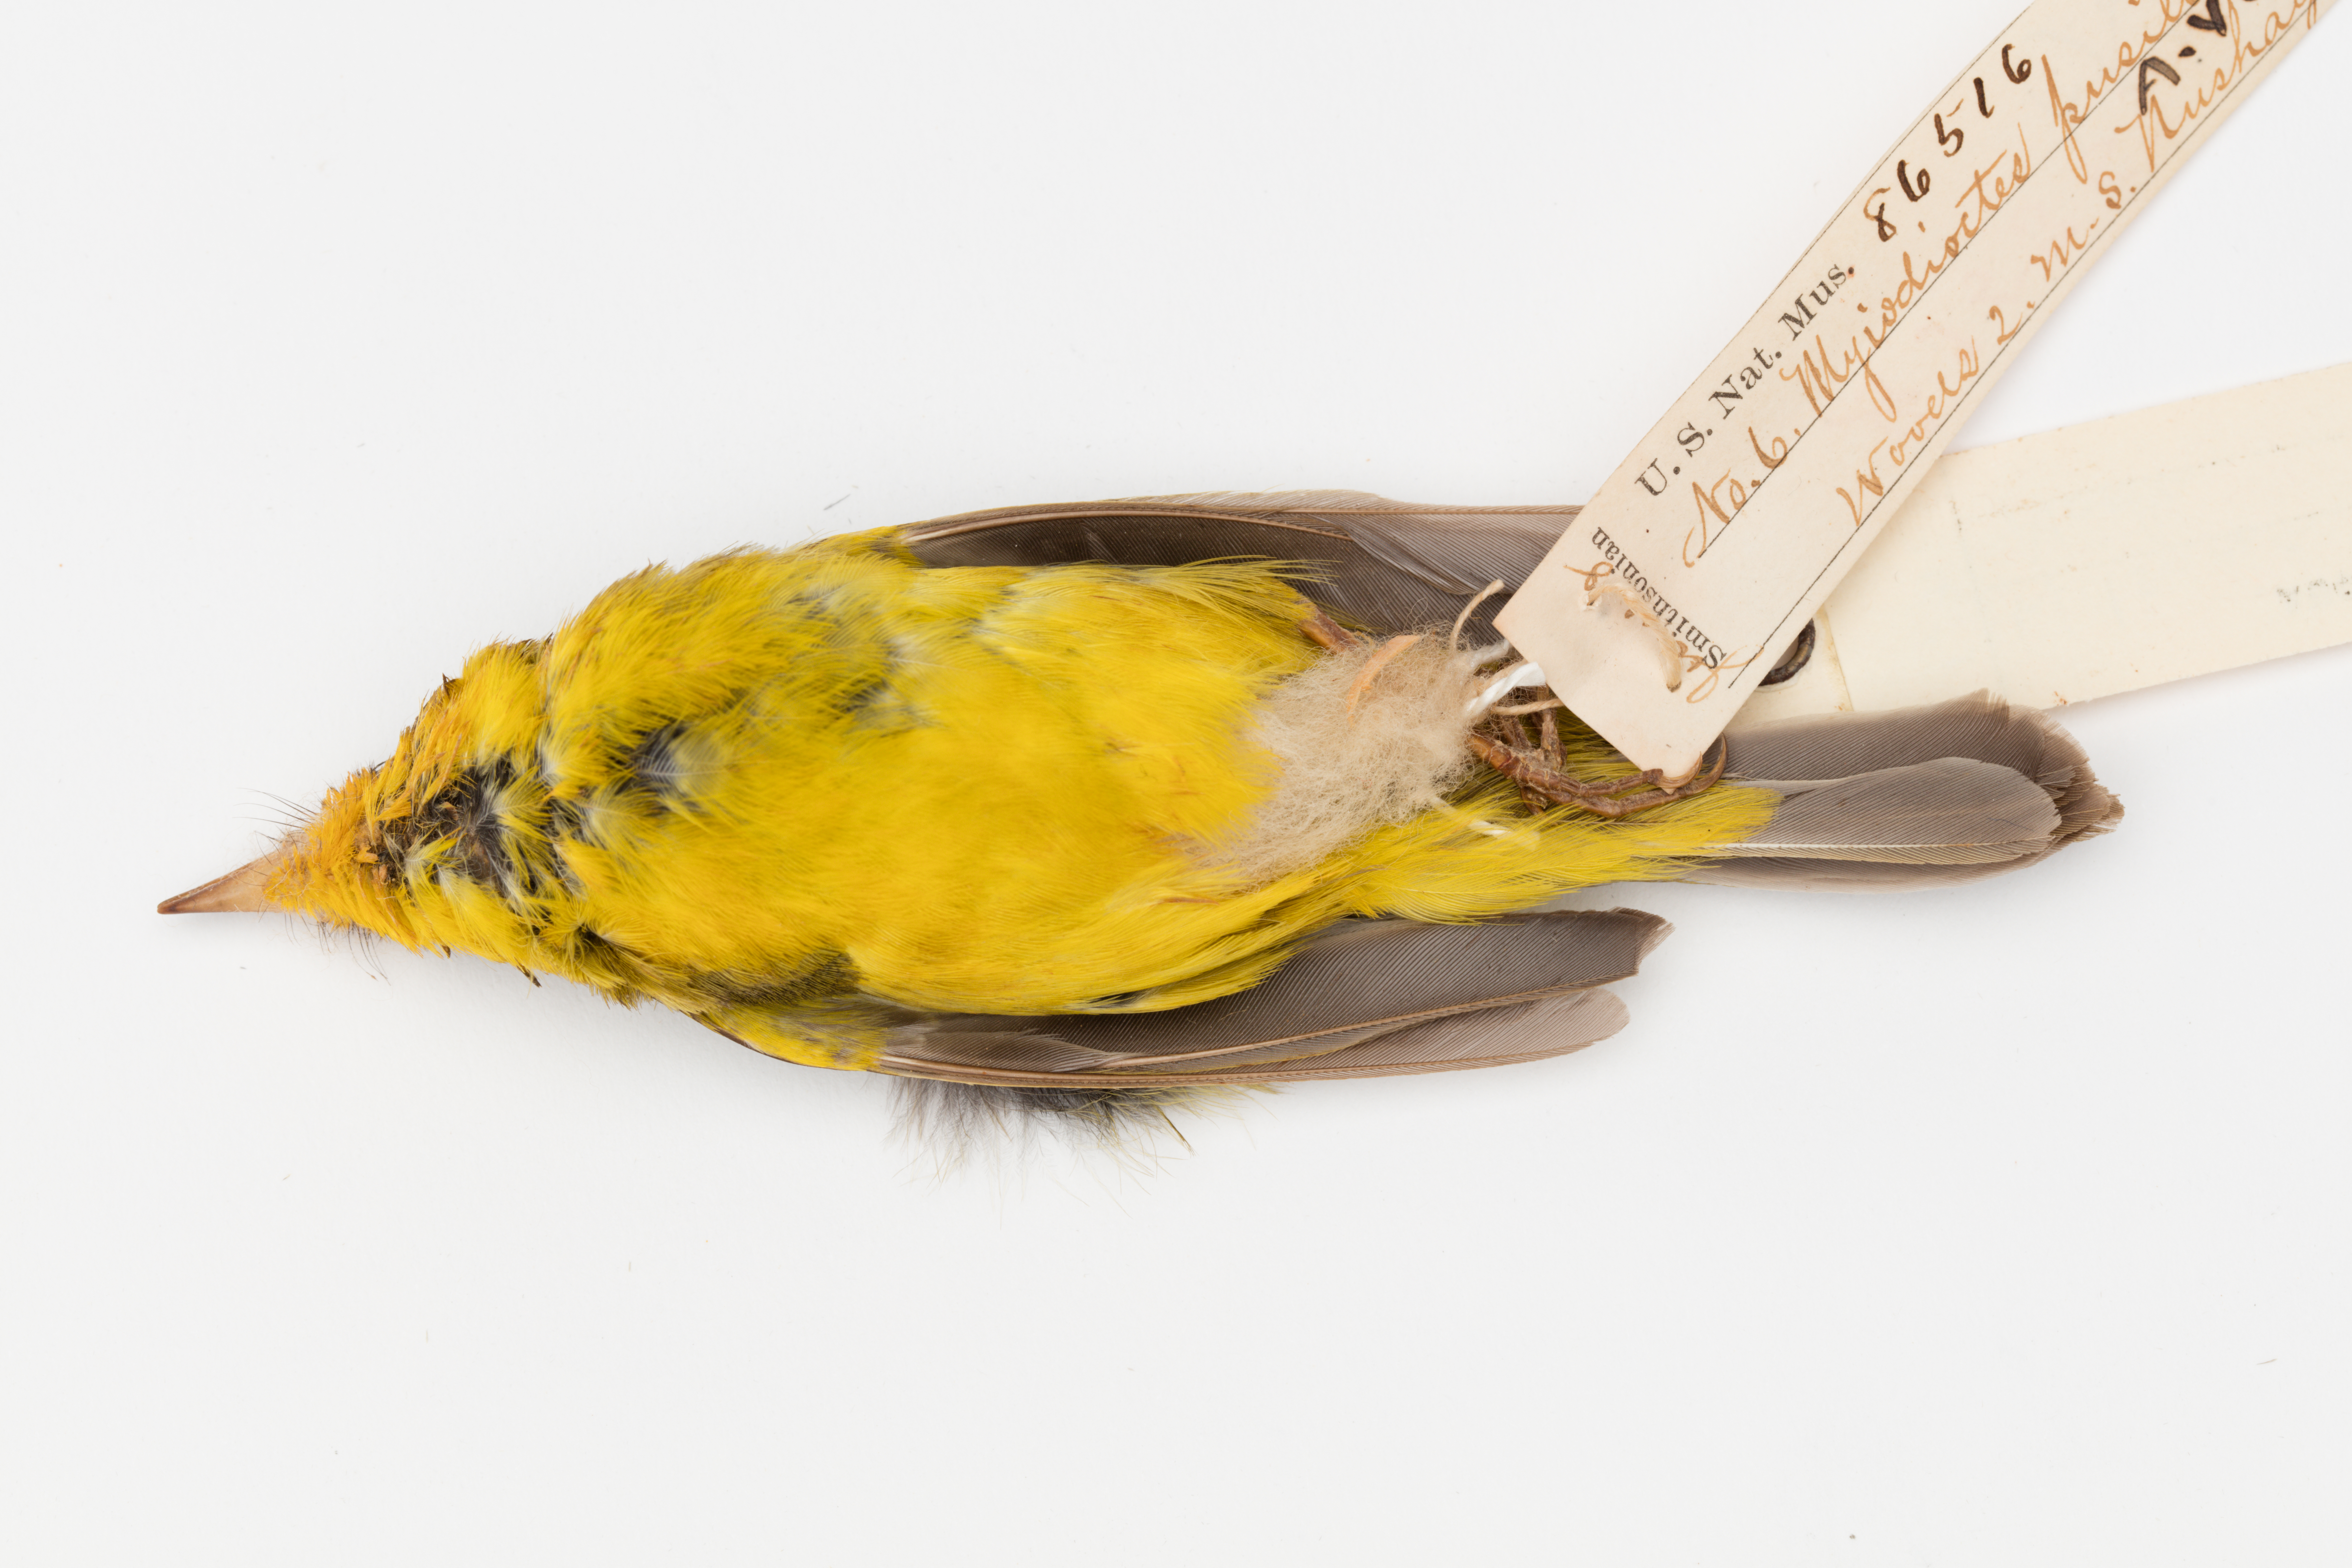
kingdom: Animalia
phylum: Chordata
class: Aves
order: Passeriformes
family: Parulidae
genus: Cardellina
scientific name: Cardellina pusilla
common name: Wilson's warbler
